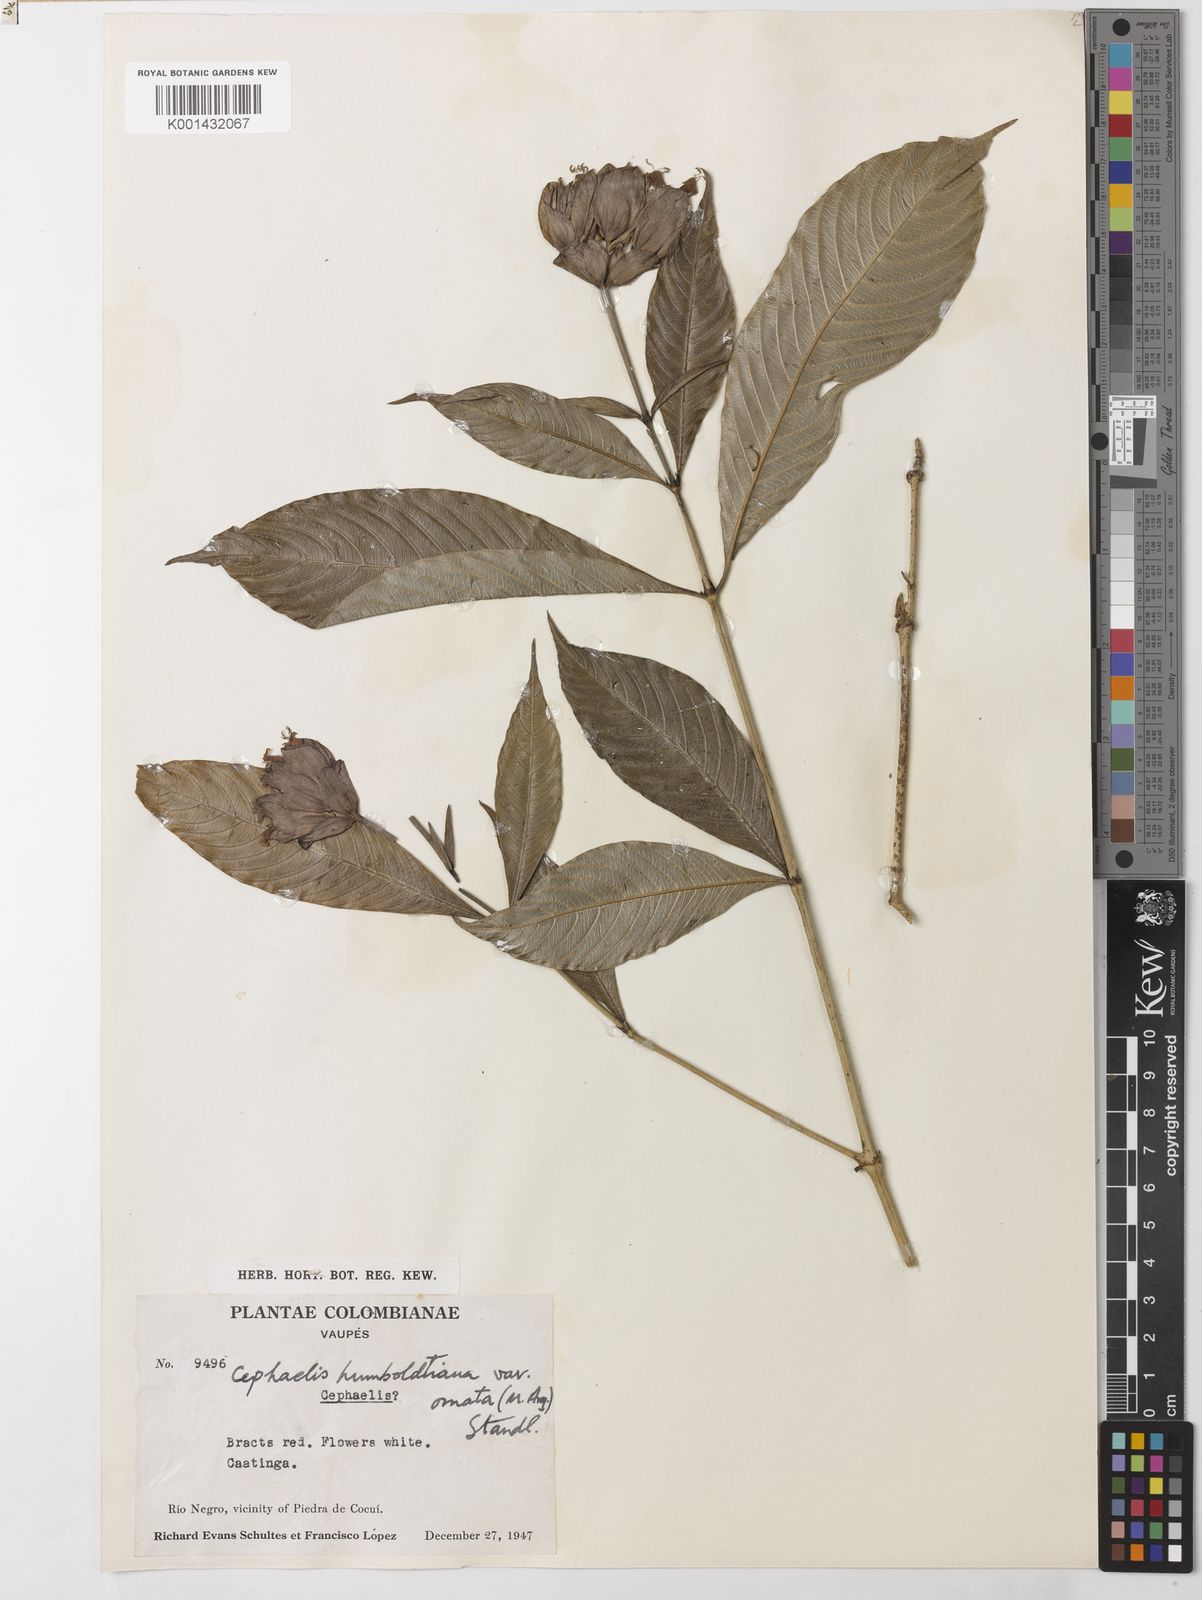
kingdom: Plantae
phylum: Tracheophyta
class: Magnoliopsida
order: Gentianales
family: Rubiaceae
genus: Psychotria
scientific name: Psychotria
